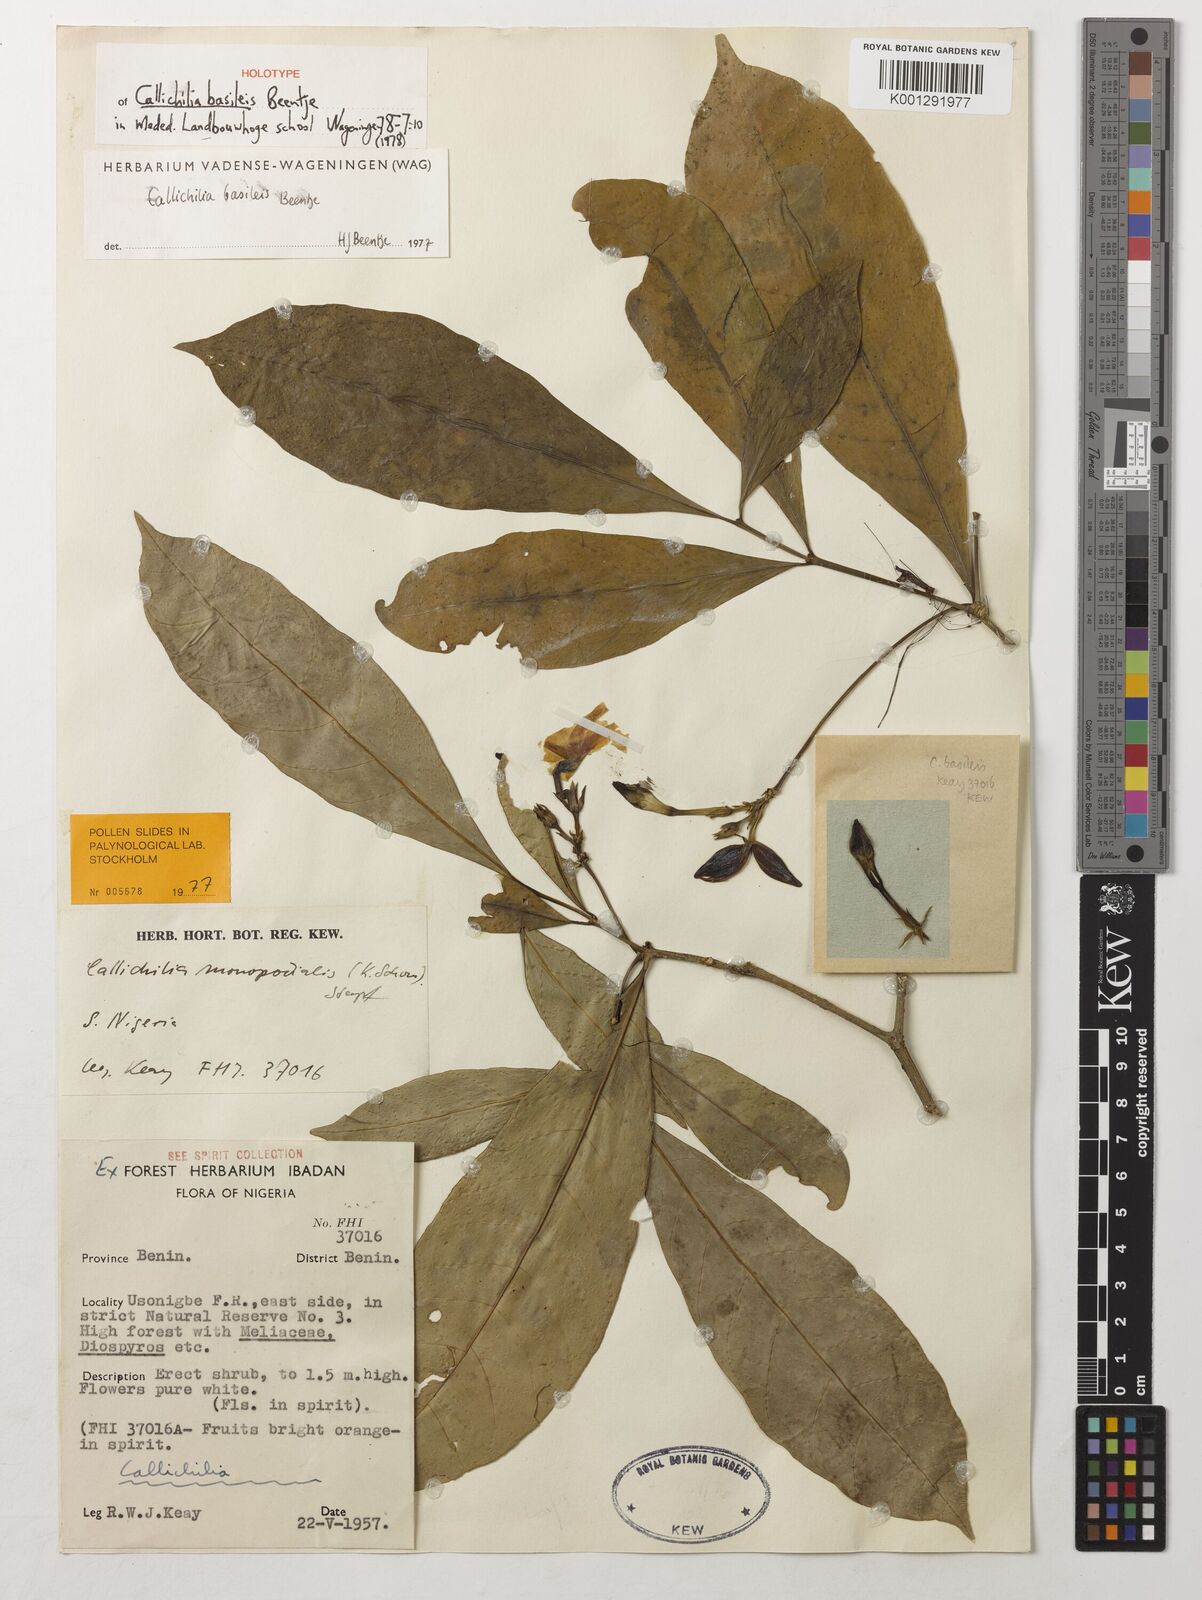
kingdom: Plantae
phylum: Tracheophyta
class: Magnoliopsida
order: Gentianales
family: Apocynaceae
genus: Callichilia
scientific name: Callichilia basileis
